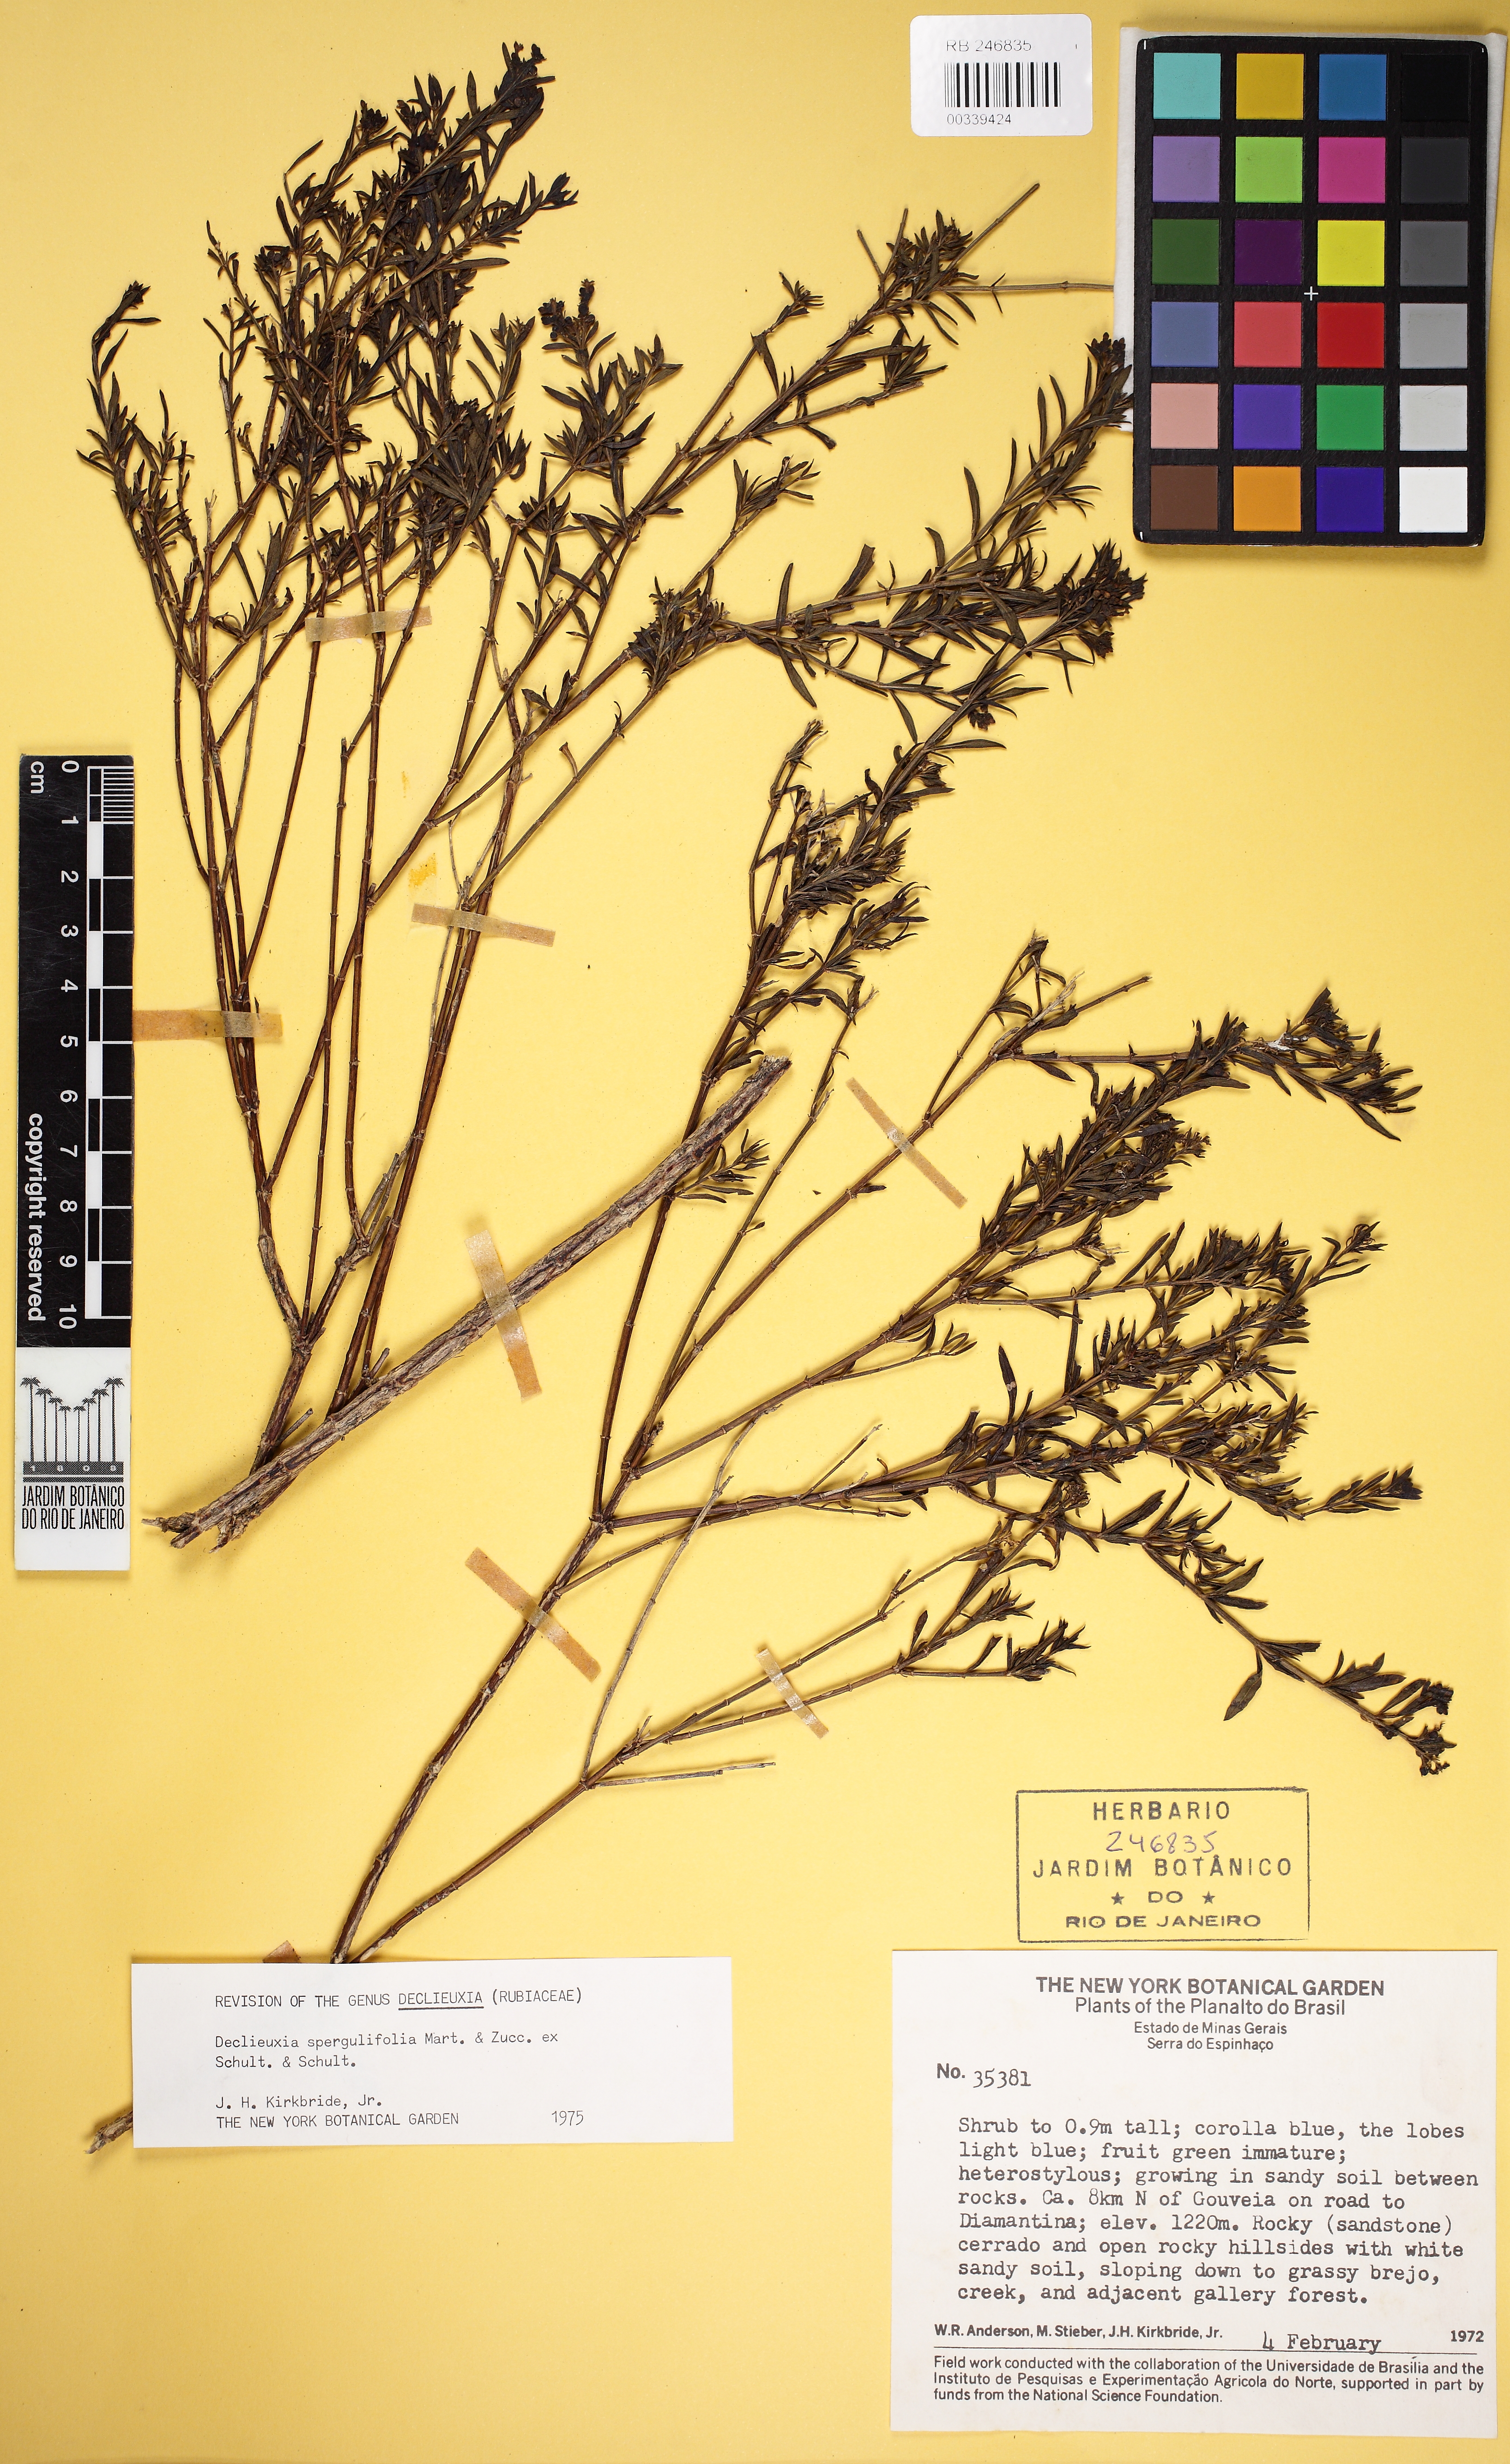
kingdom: Plantae
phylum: Tracheophyta
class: Magnoliopsida
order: Gentianales
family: Rubiaceae
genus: Declieuxia
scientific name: Declieuxia spergulifolia
